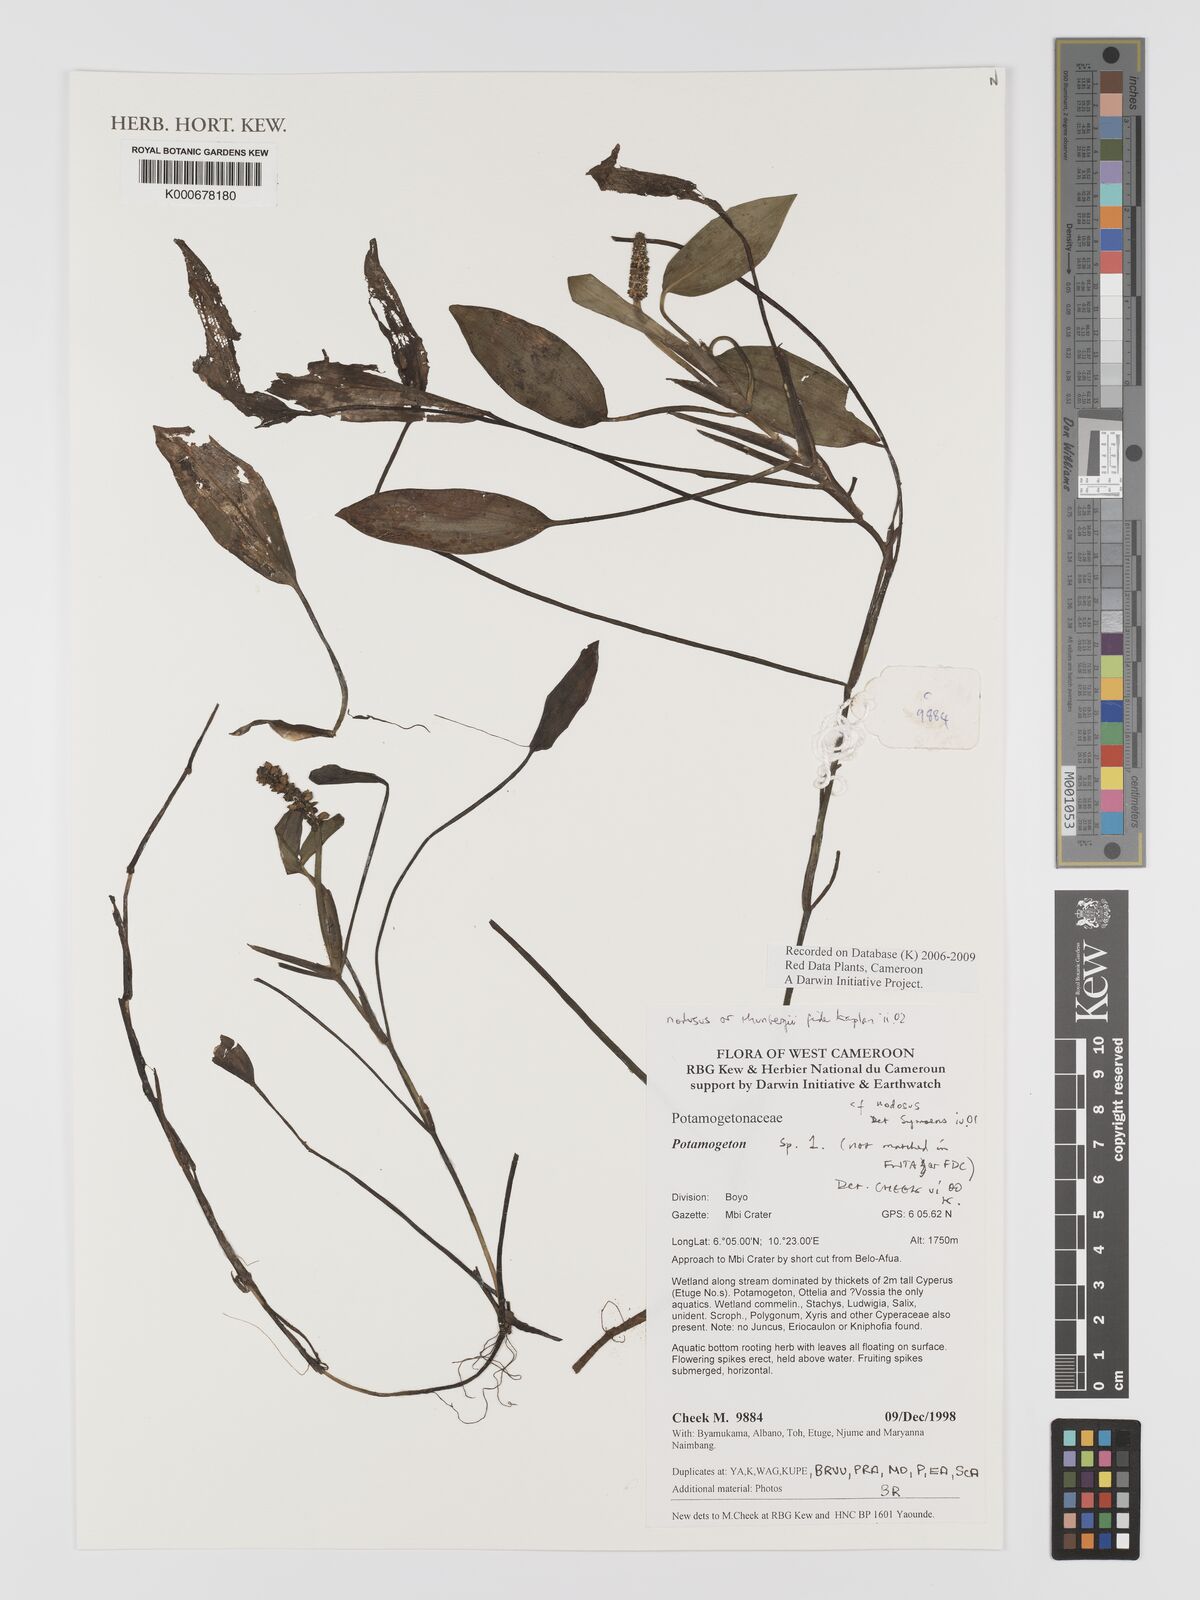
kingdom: Plantae
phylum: Tracheophyta
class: Liliopsida
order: Alismatales
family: Potamogetonaceae
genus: Potamogeton
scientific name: Potamogeton
